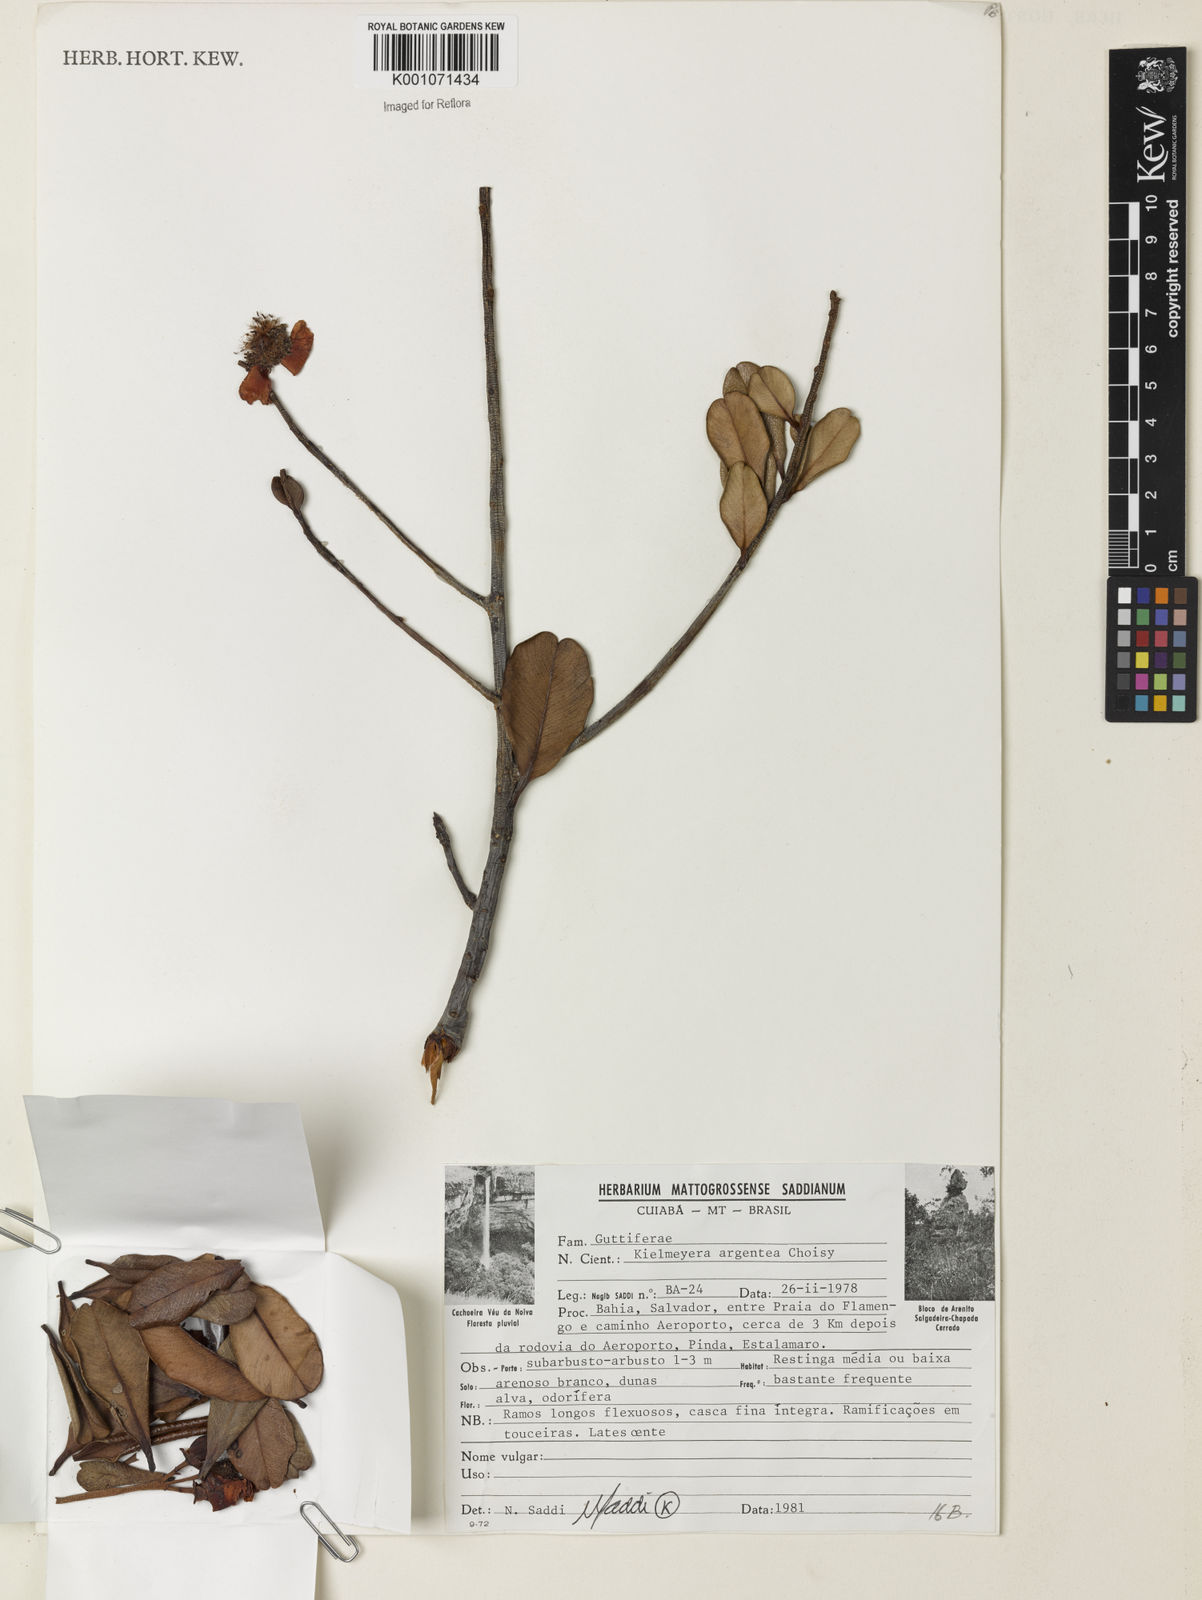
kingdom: Plantae
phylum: Tracheophyta
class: Magnoliopsida
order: Malpighiales
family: Calophyllaceae
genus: Kielmeyera
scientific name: Kielmeyera argentea
